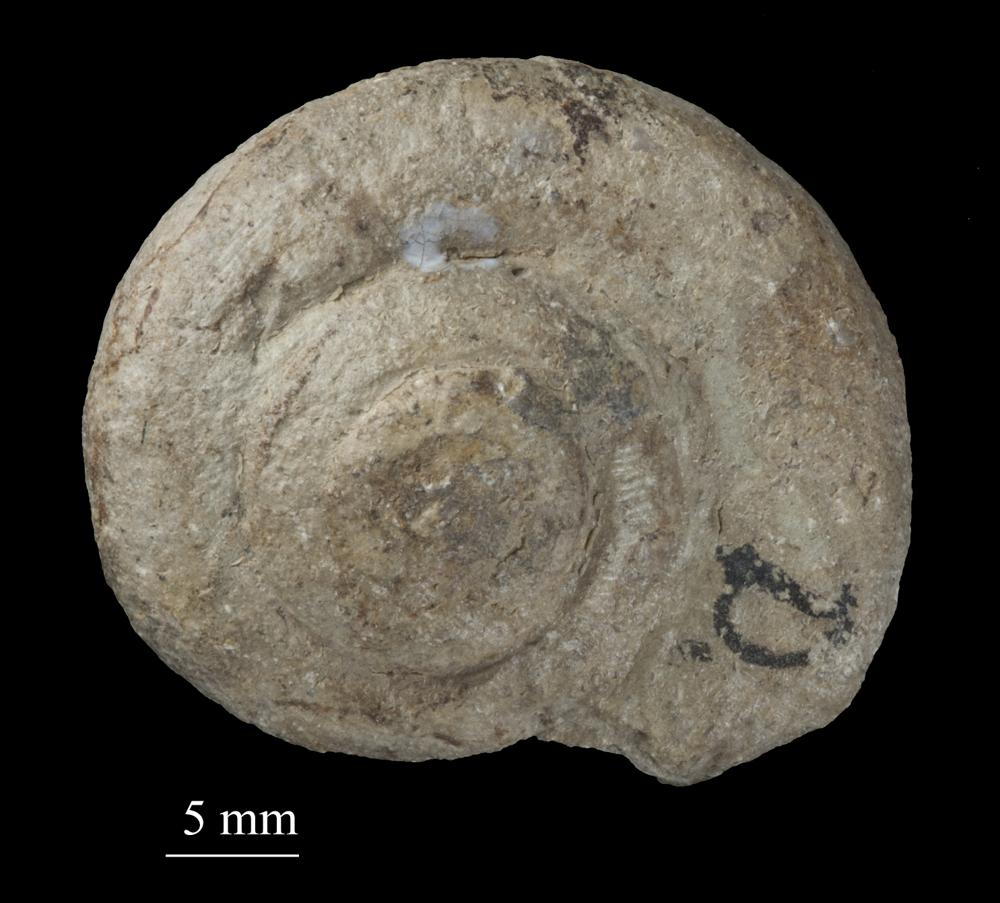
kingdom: Animalia
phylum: Mollusca
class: Gastropoda
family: Bucaniidae
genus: Megalomphala
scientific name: Megalomphala
